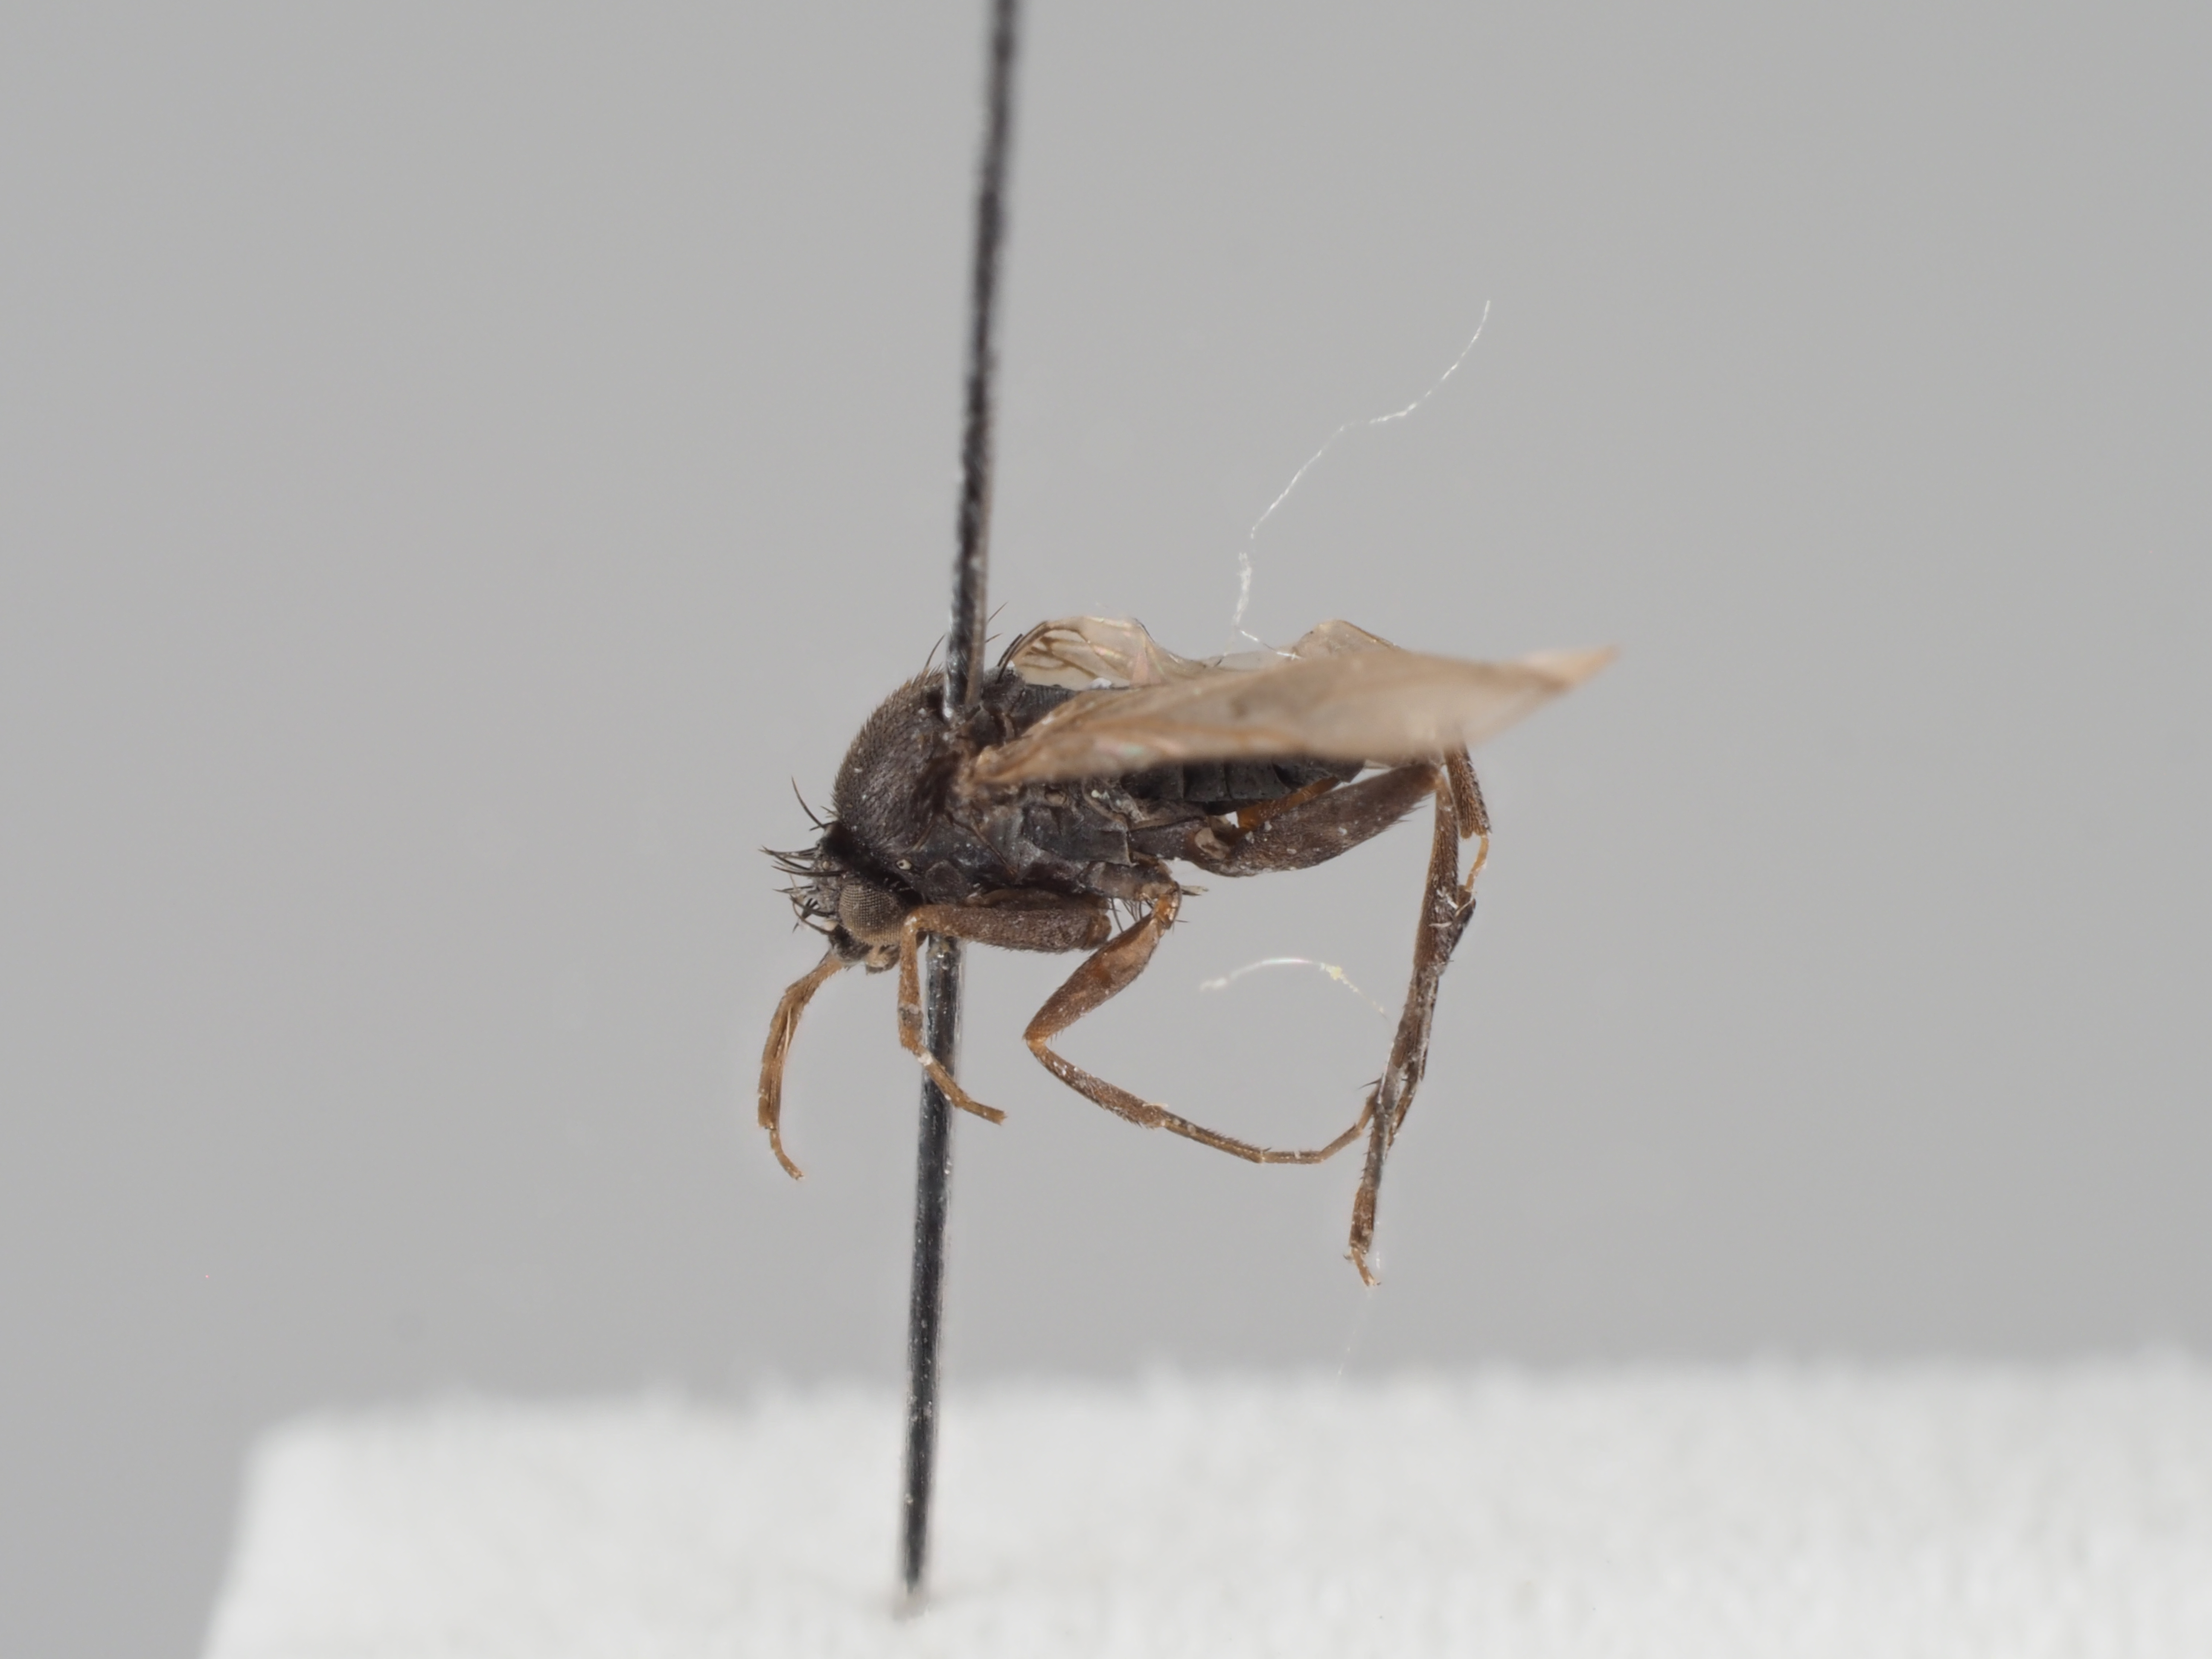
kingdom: Animalia
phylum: Arthropoda
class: Insecta
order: Diptera
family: Phoridae
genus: Megaselia
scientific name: Megaselia utsjokiensis
